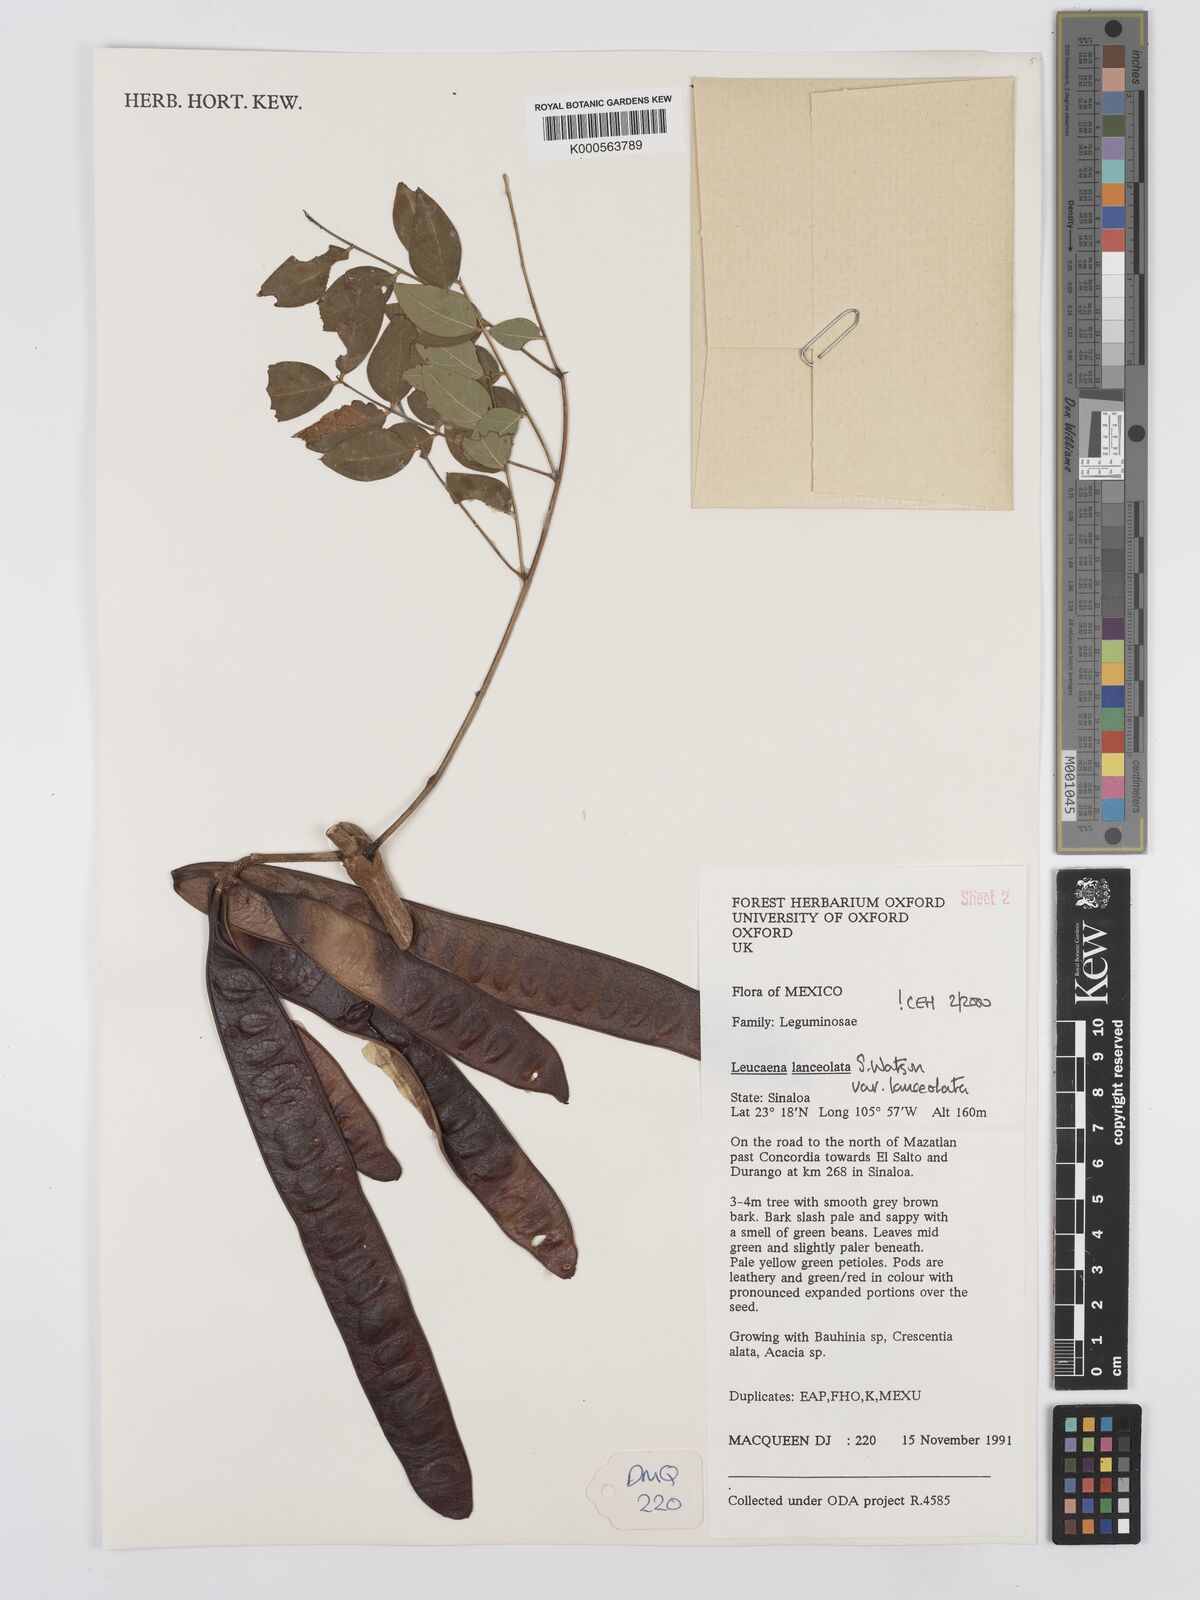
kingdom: Plantae
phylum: Tracheophyta
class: Magnoliopsida
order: Fabales
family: Fabaceae
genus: Leucaena
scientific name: Leucaena lanceolata
